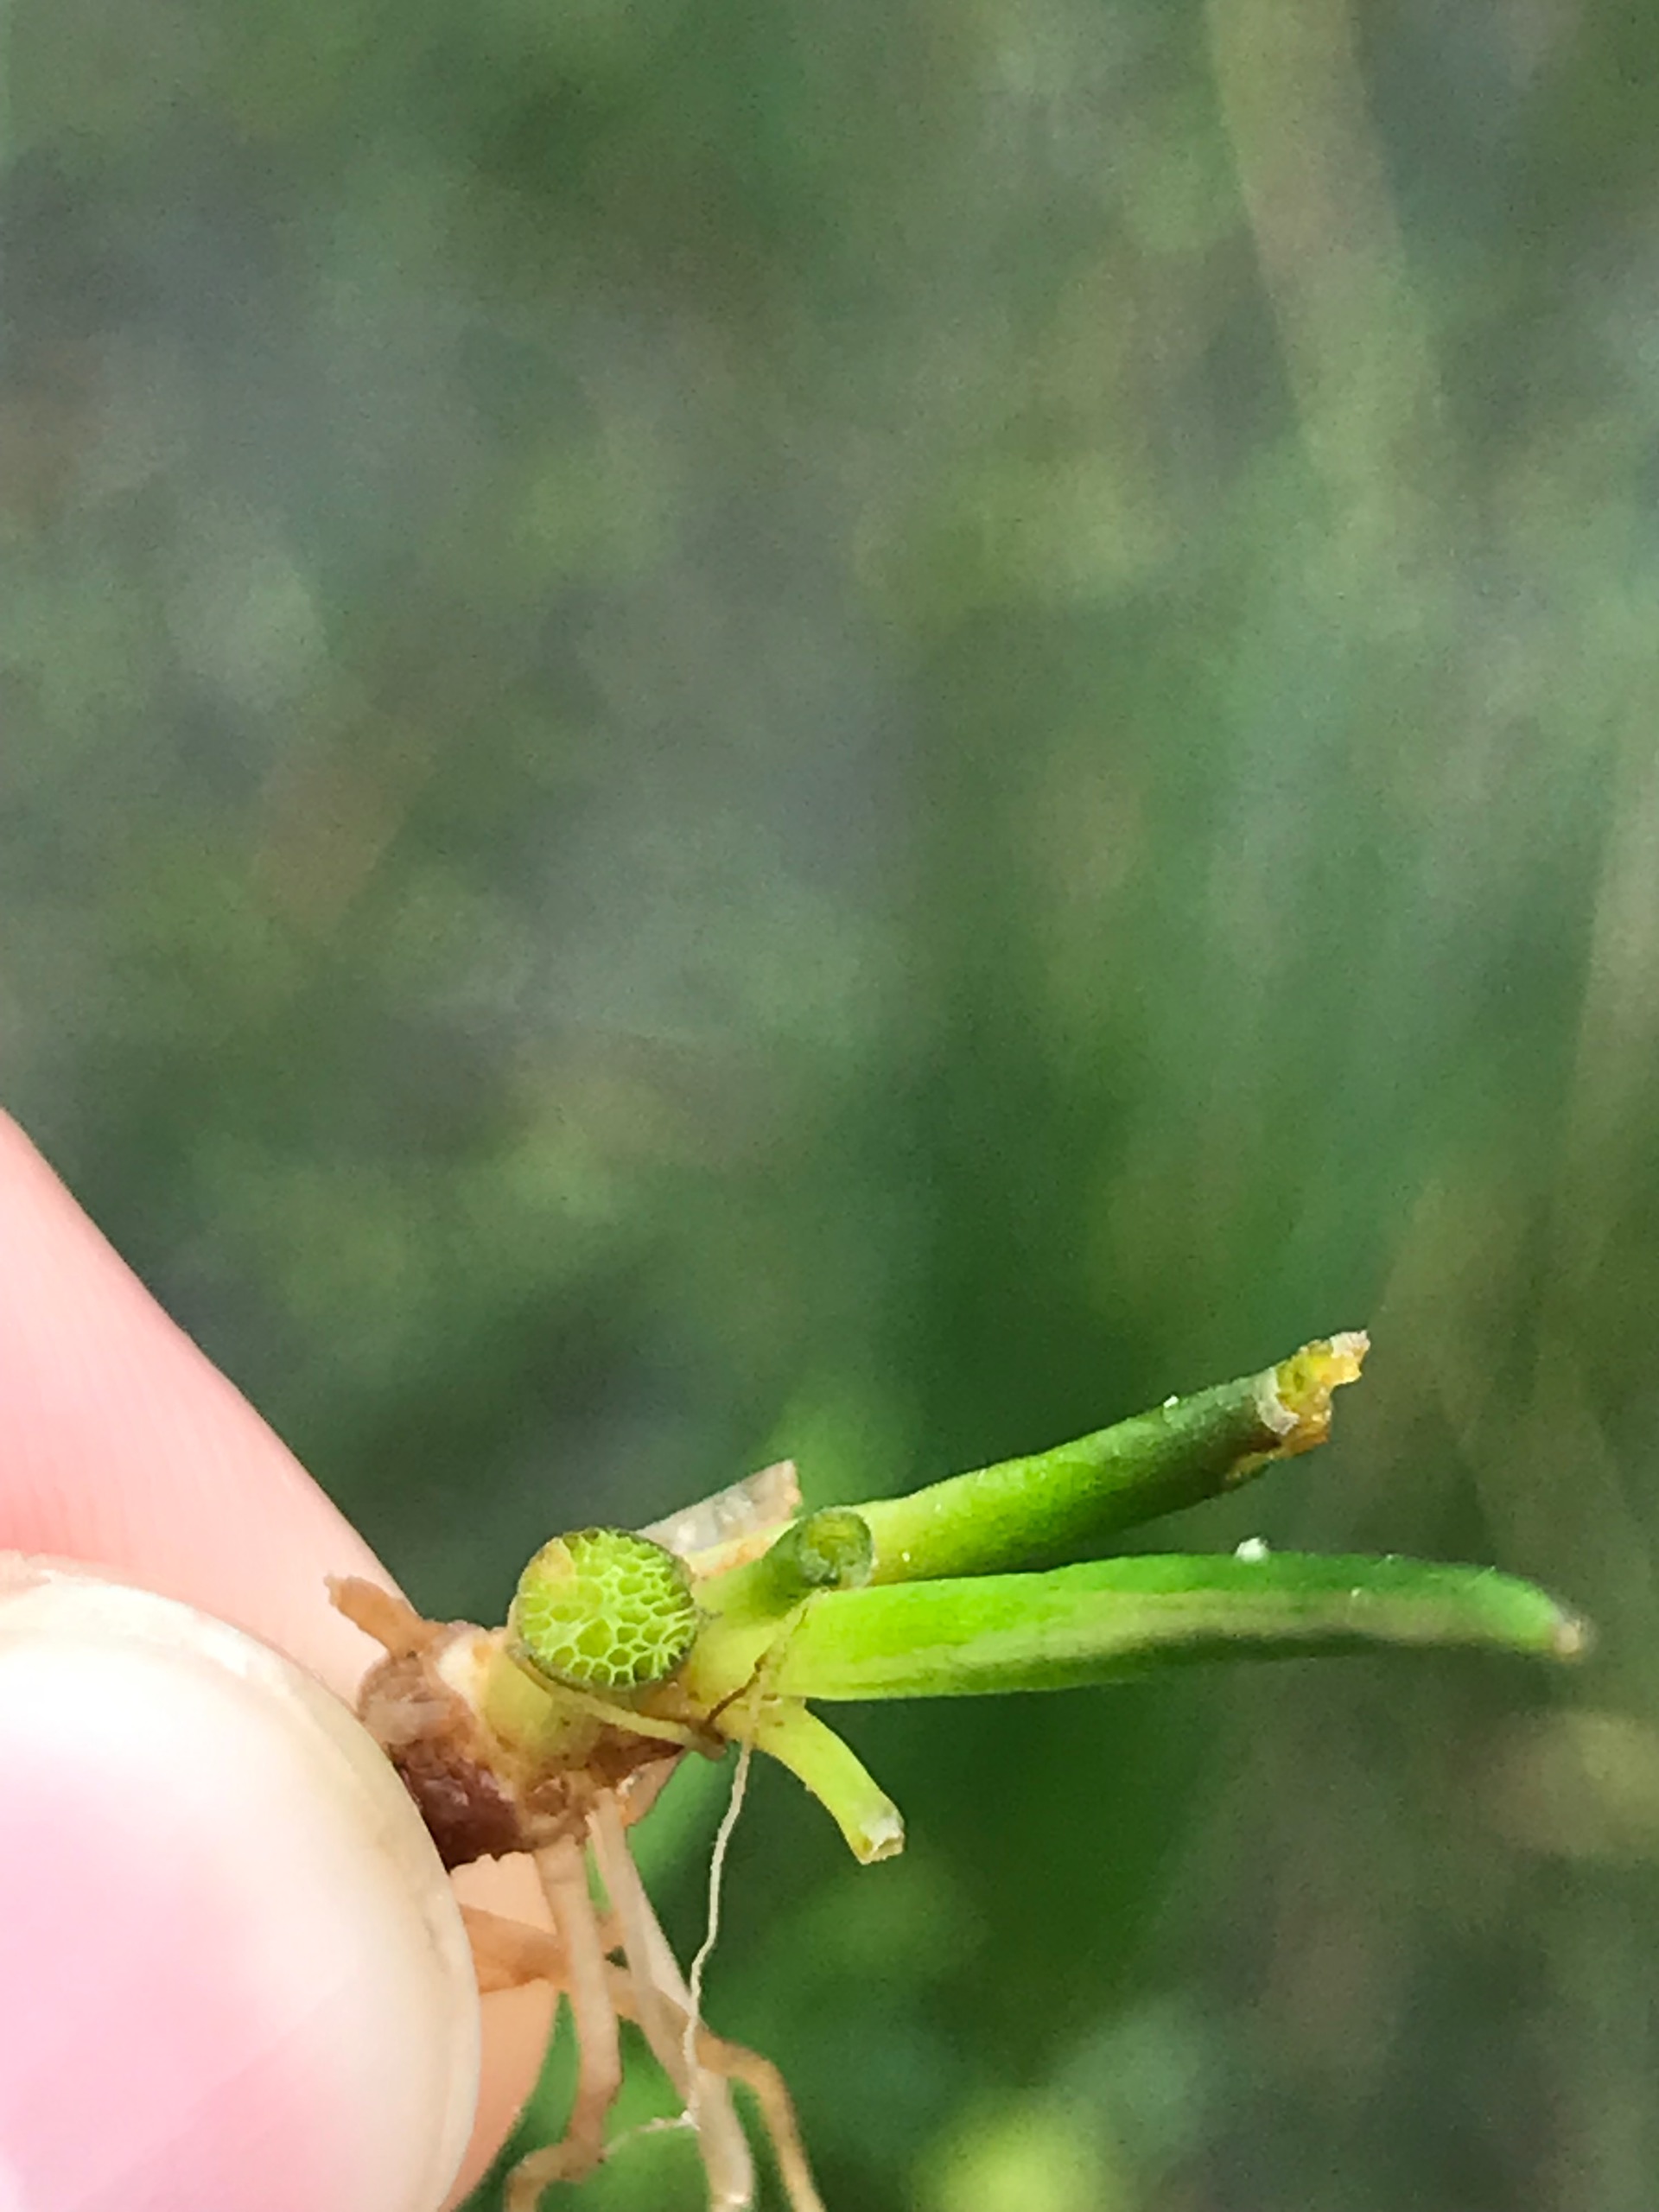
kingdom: Plantae
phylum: Tracheophyta
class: Magnoliopsida
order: Lamiales
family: Plantaginaceae
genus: Littorella
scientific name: Littorella uniflora
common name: Strandbo
